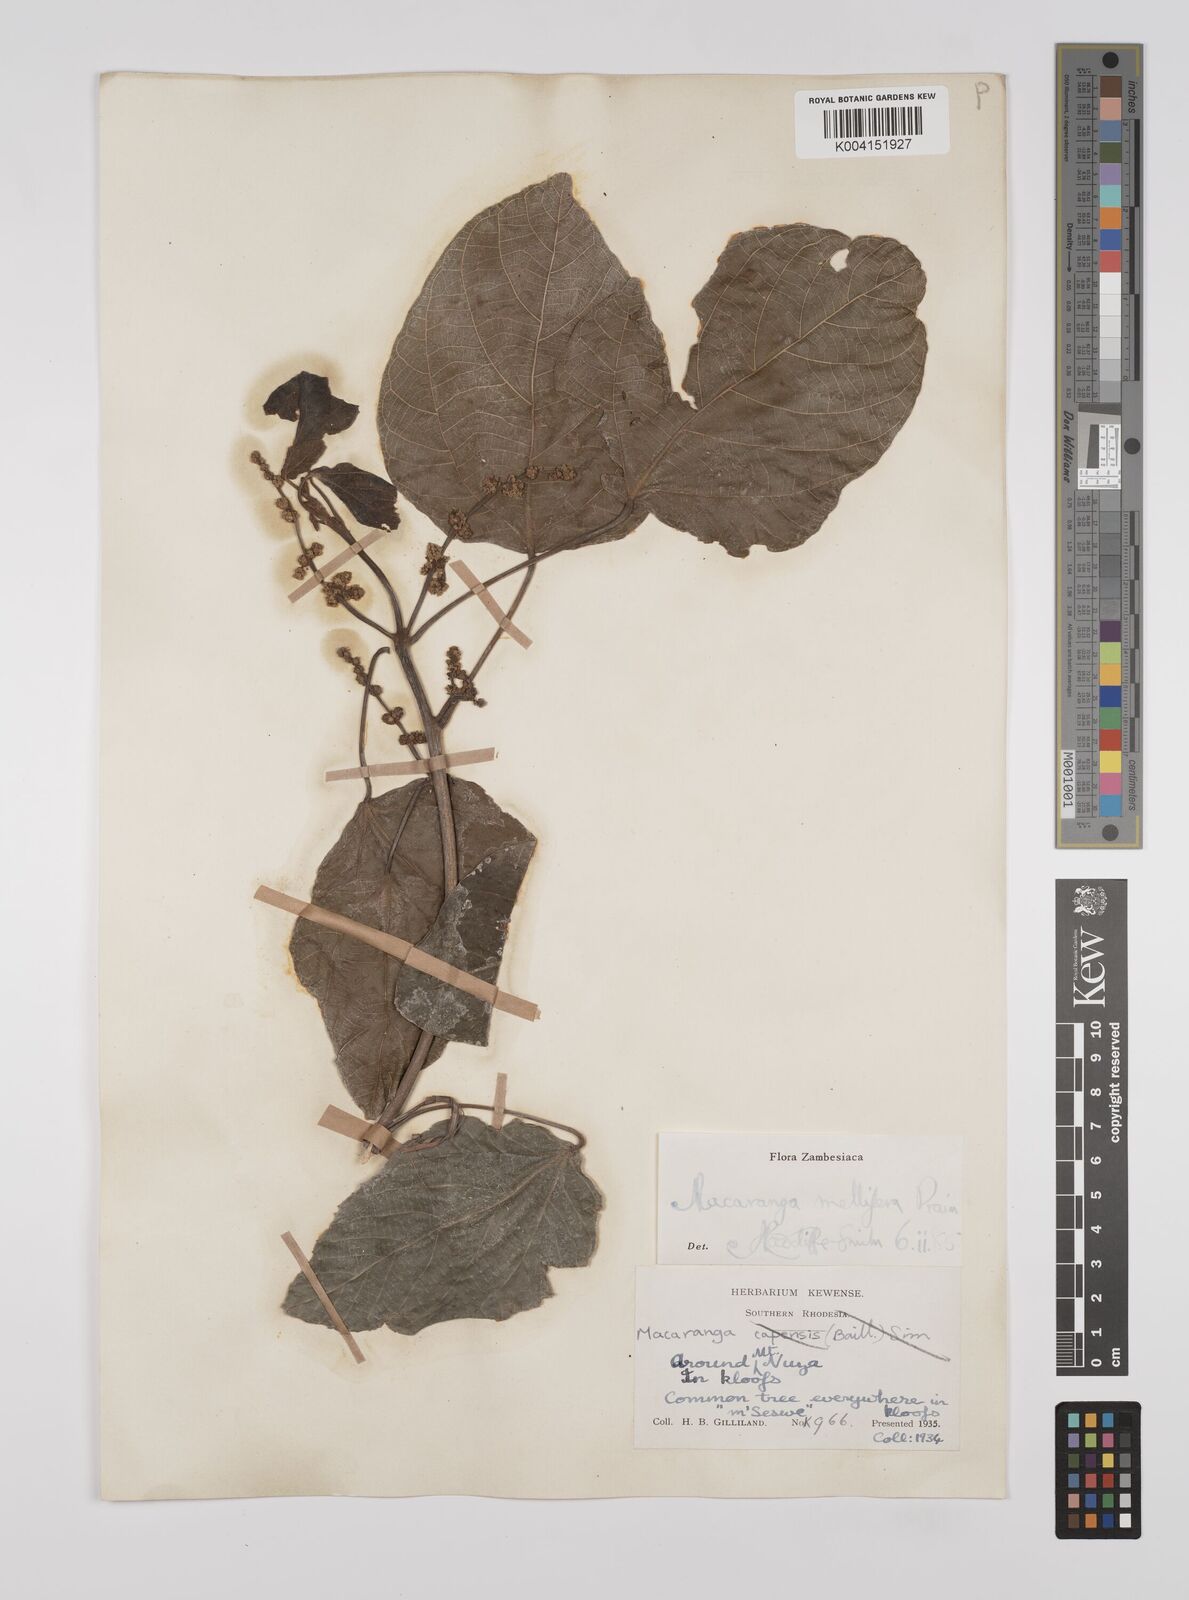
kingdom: Plantae
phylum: Tracheophyta
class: Magnoliopsida
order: Malpighiales
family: Euphorbiaceae
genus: Macaranga
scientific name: Macaranga mellifera
